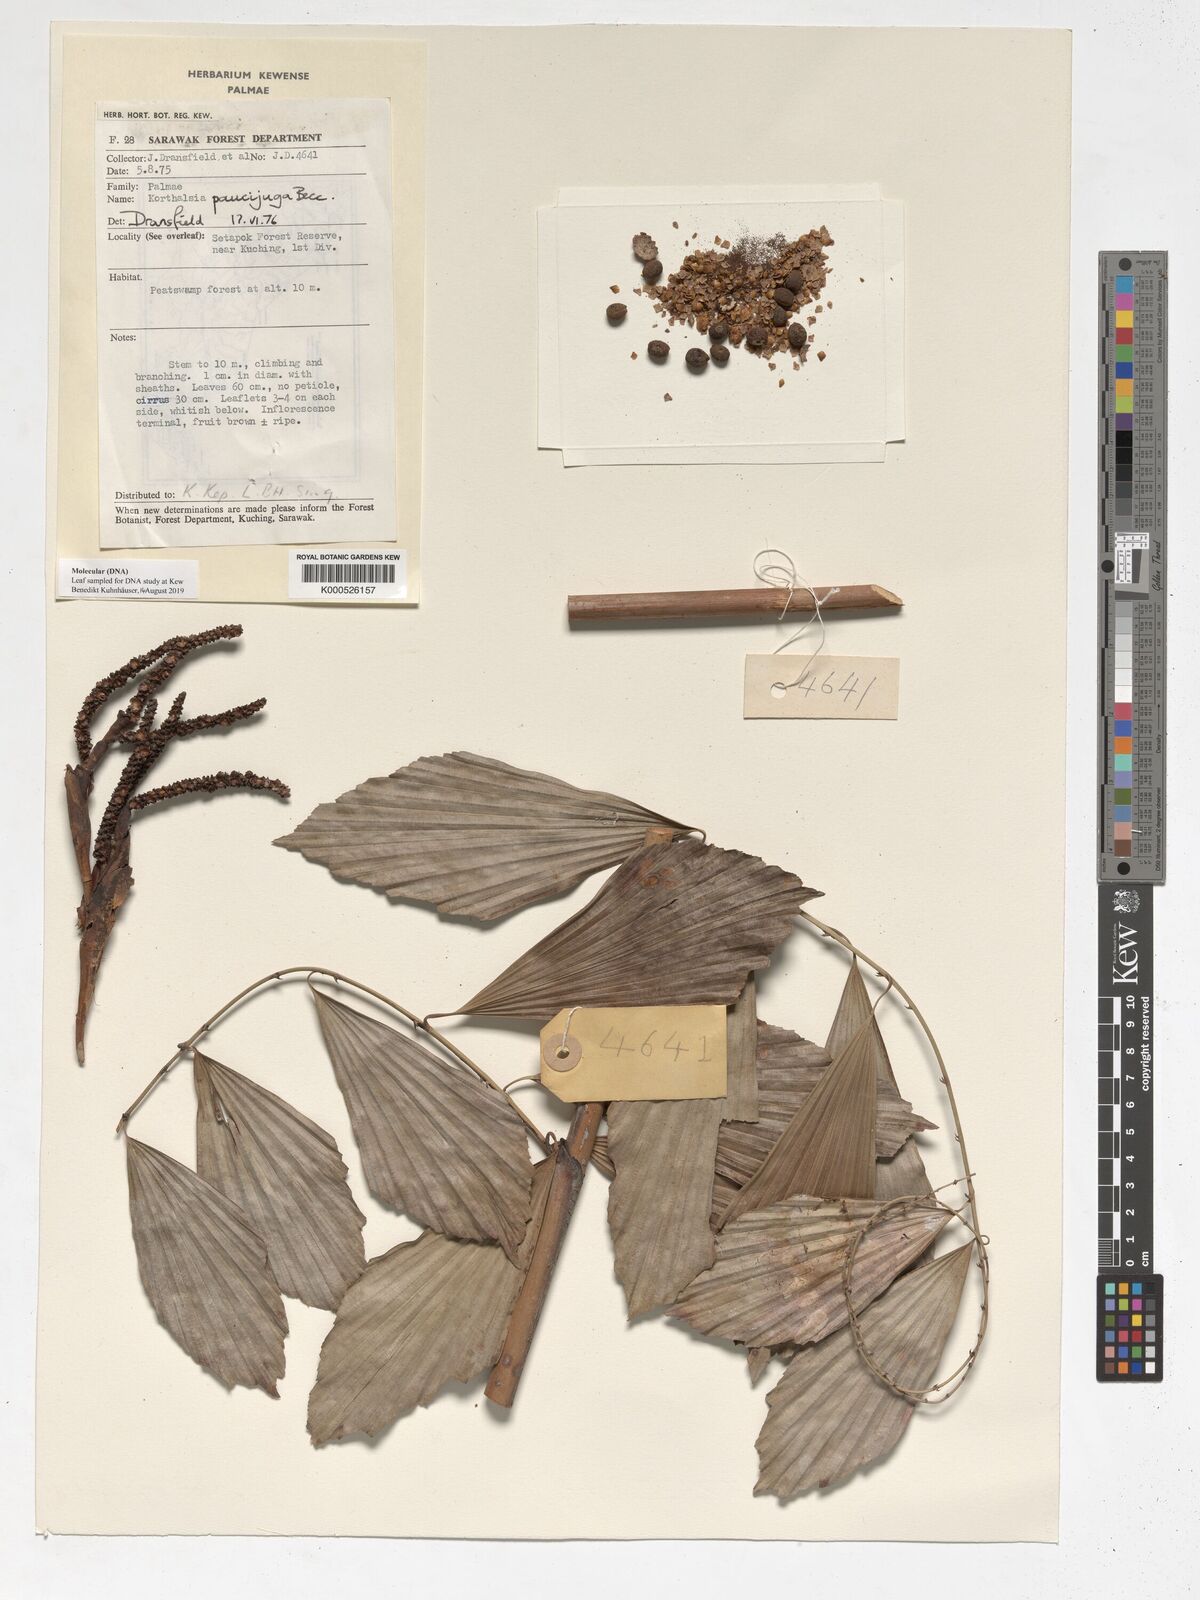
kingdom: Plantae
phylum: Tracheophyta
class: Liliopsida
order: Arecales
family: Arecaceae
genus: Korthalsia
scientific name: Korthalsia paucijuga
